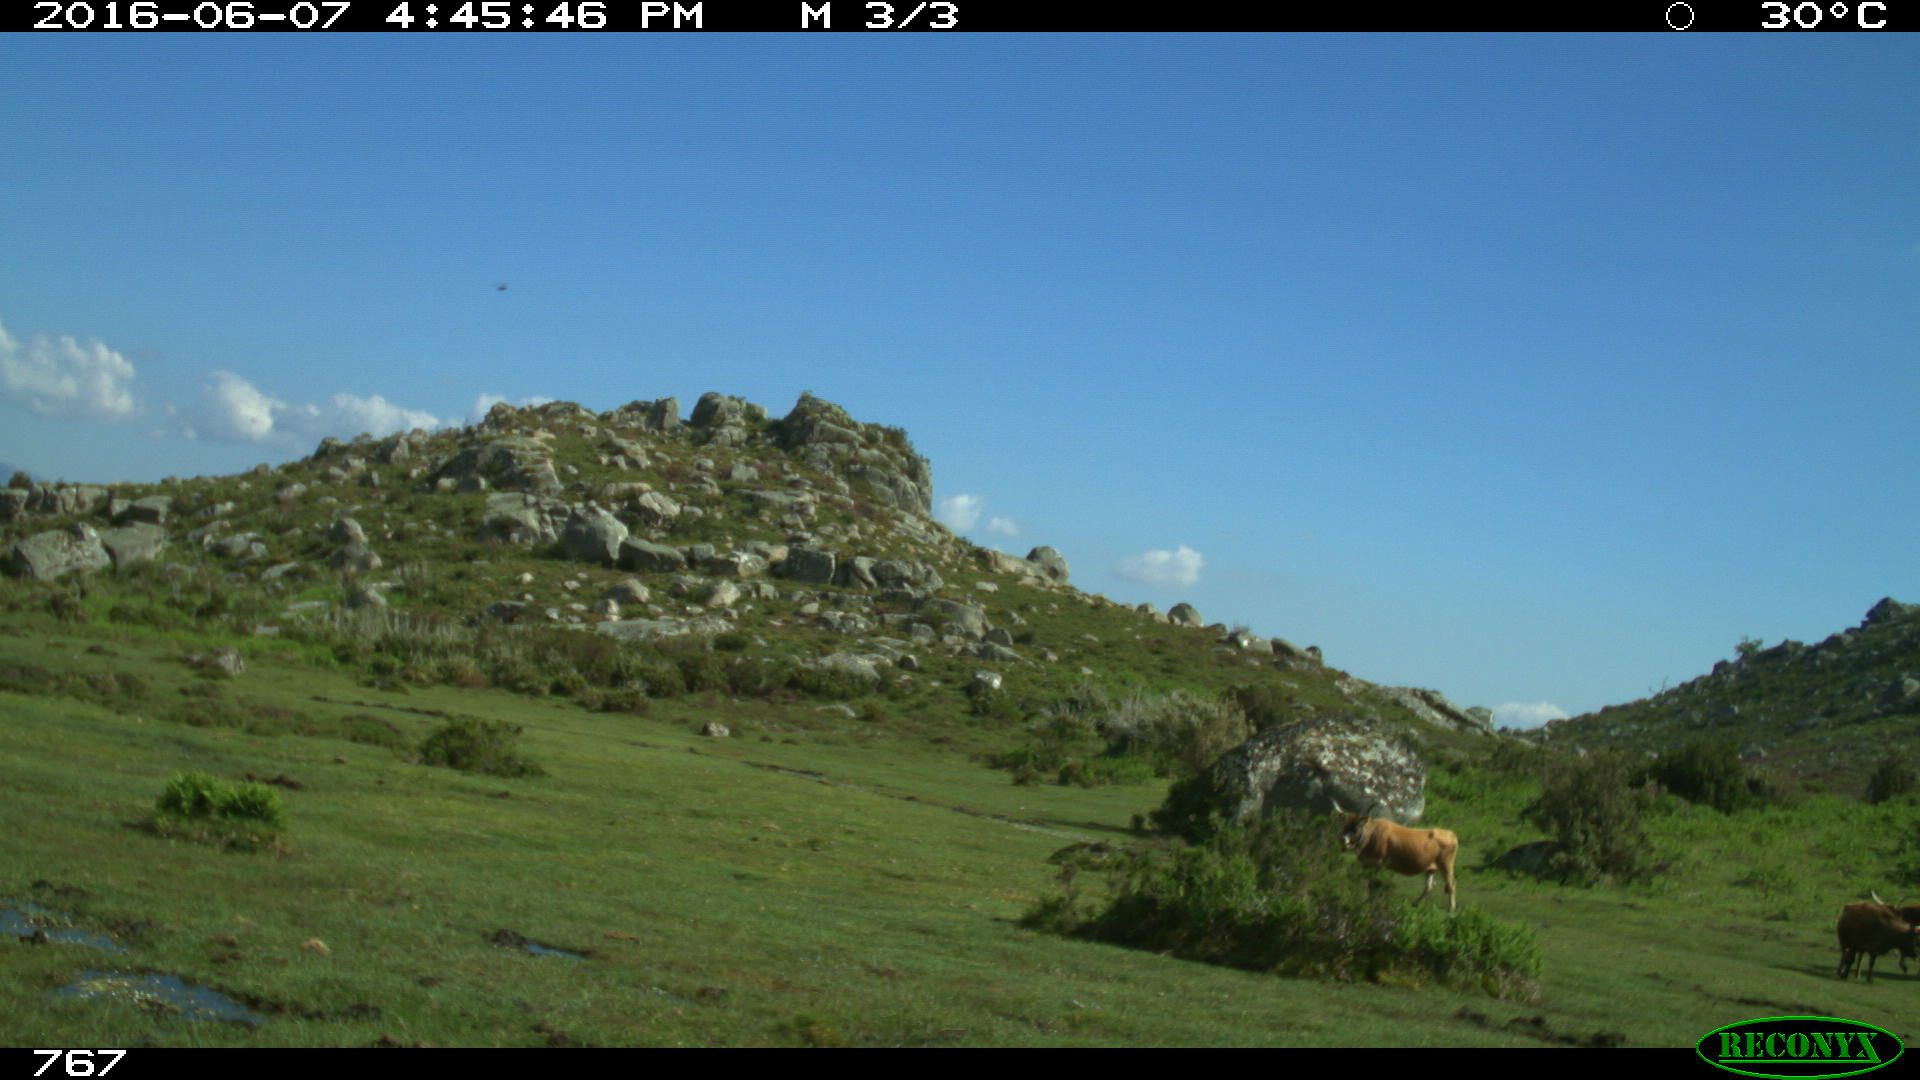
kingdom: Animalia
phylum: Chordata
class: Mammalia
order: Artiodactyla
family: Bovidae
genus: Bos
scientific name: Bos taurus
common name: Domesticated cattle
